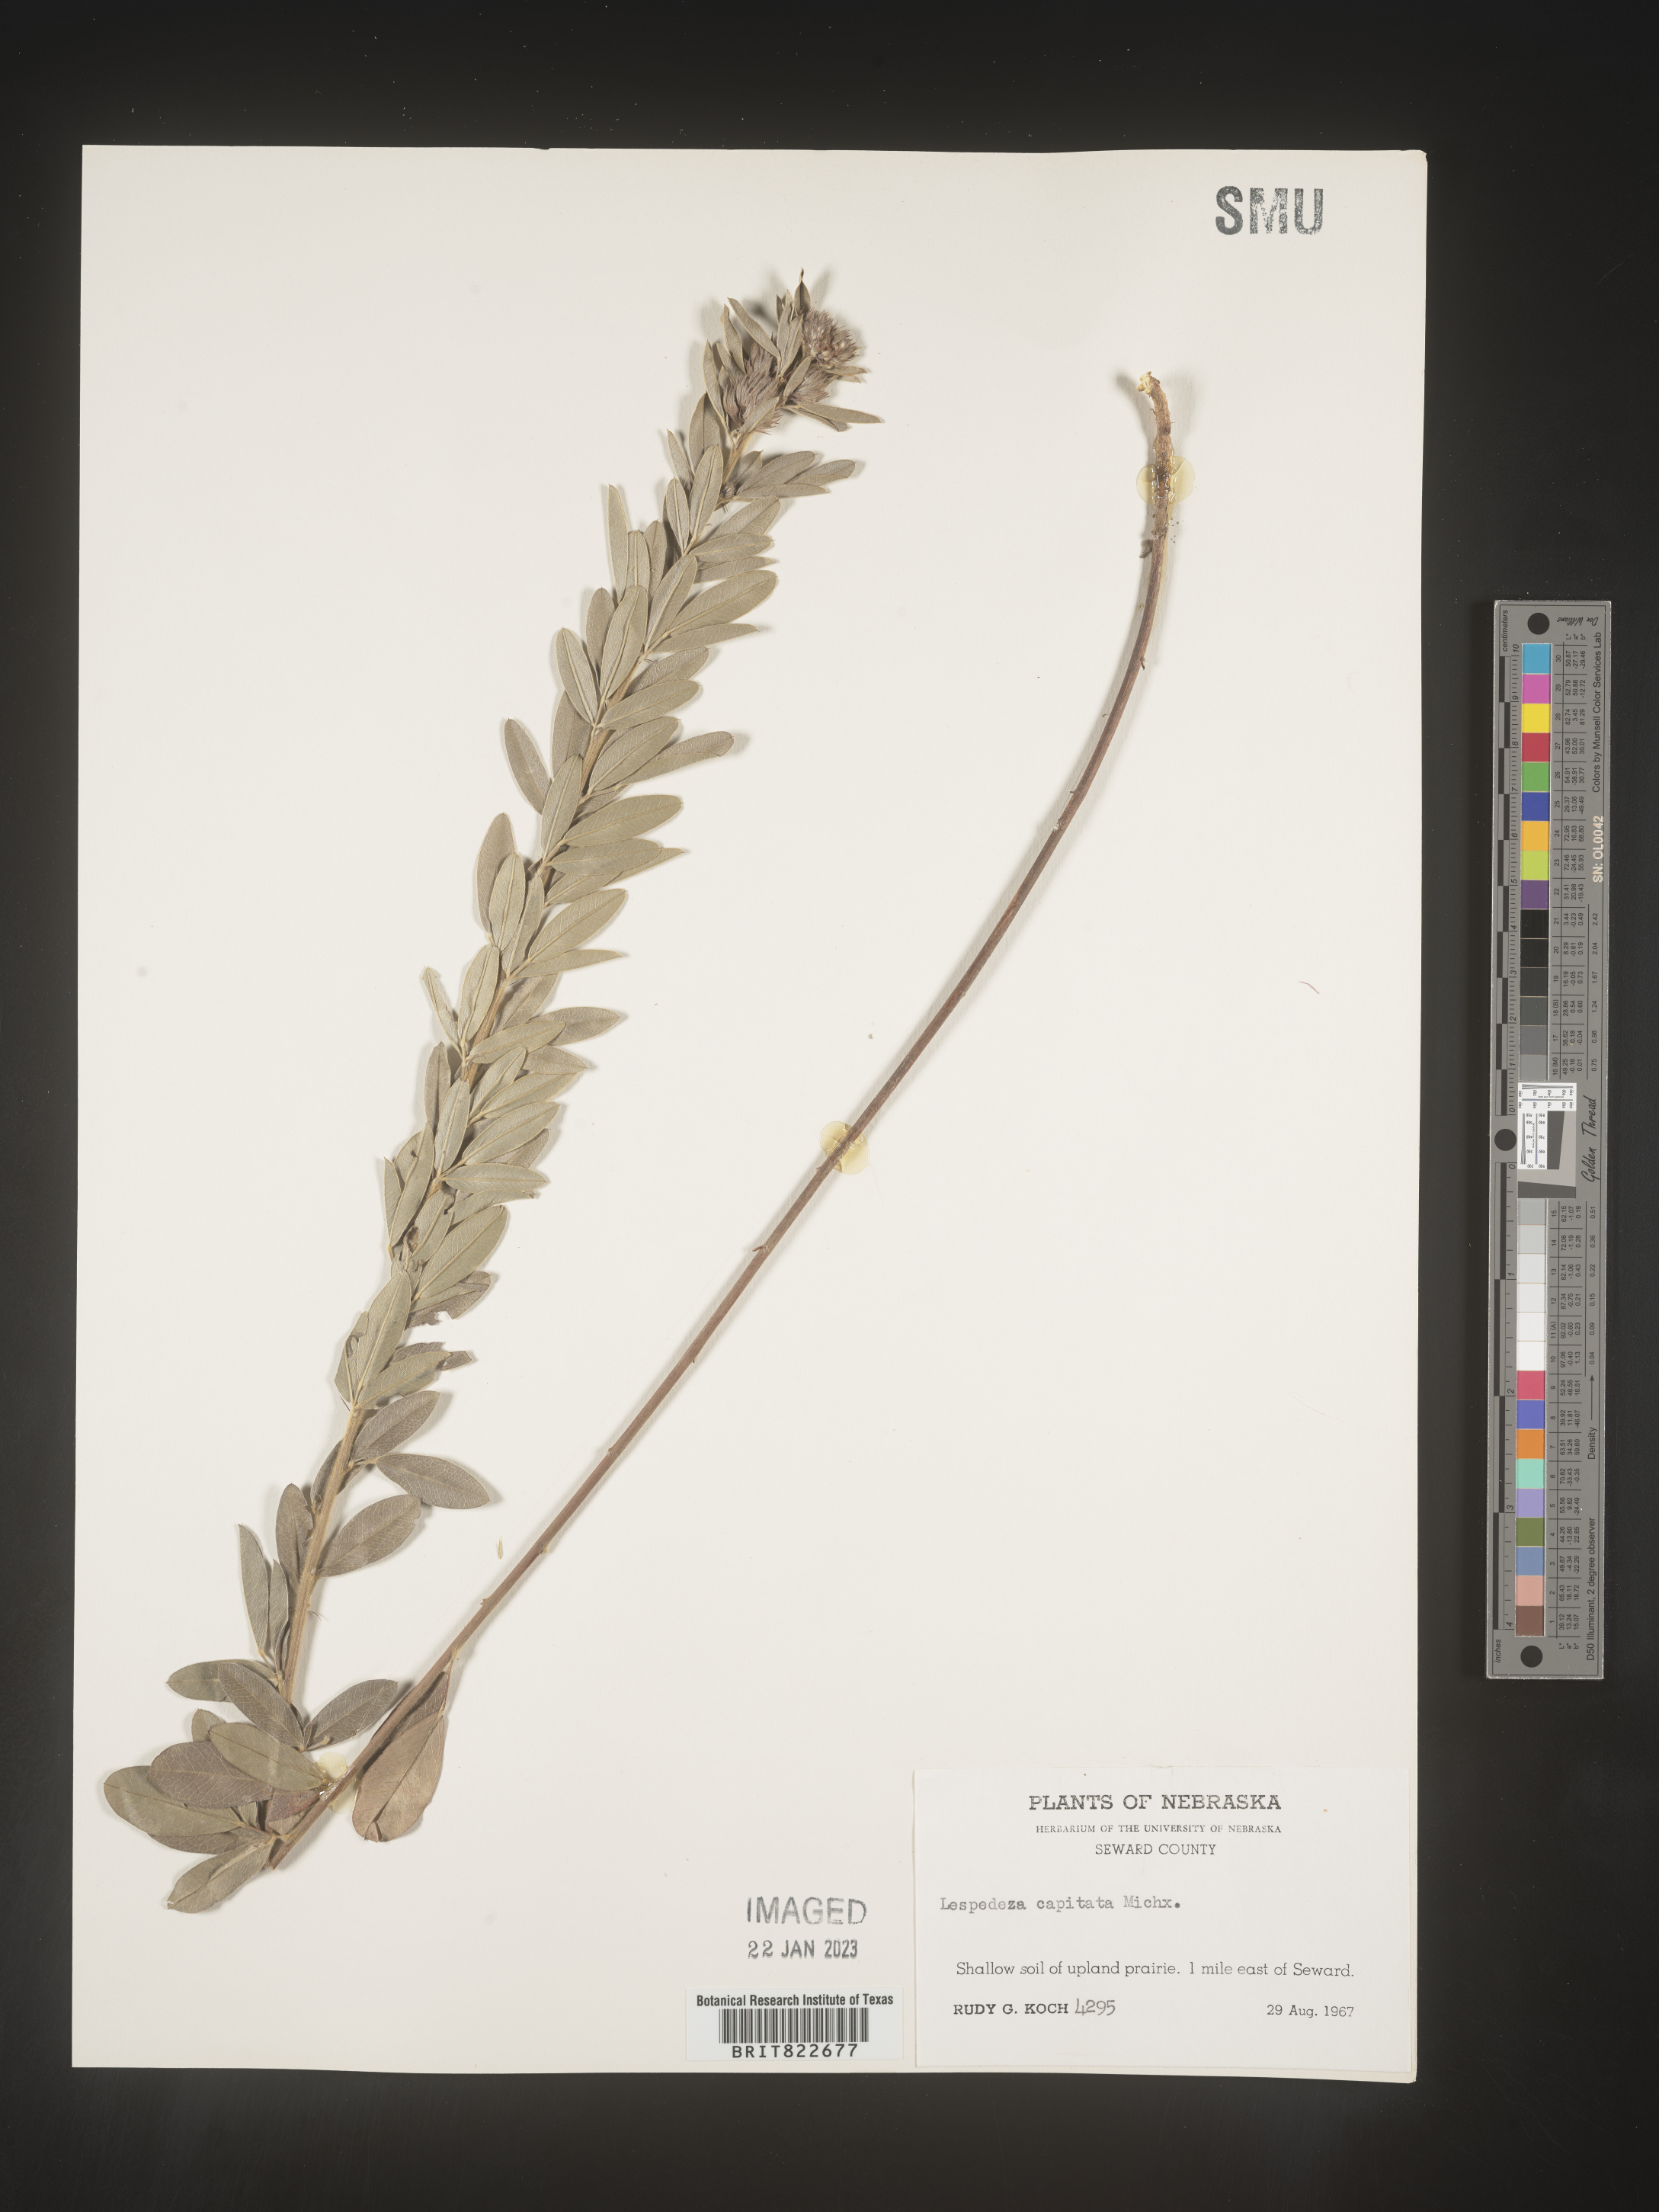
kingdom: Plantae
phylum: Tracheophyta
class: Magnoliopsida
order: Fabales
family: Fabaceae
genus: Lespedeza
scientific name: Lespedeza capitata
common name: Dusty clover
